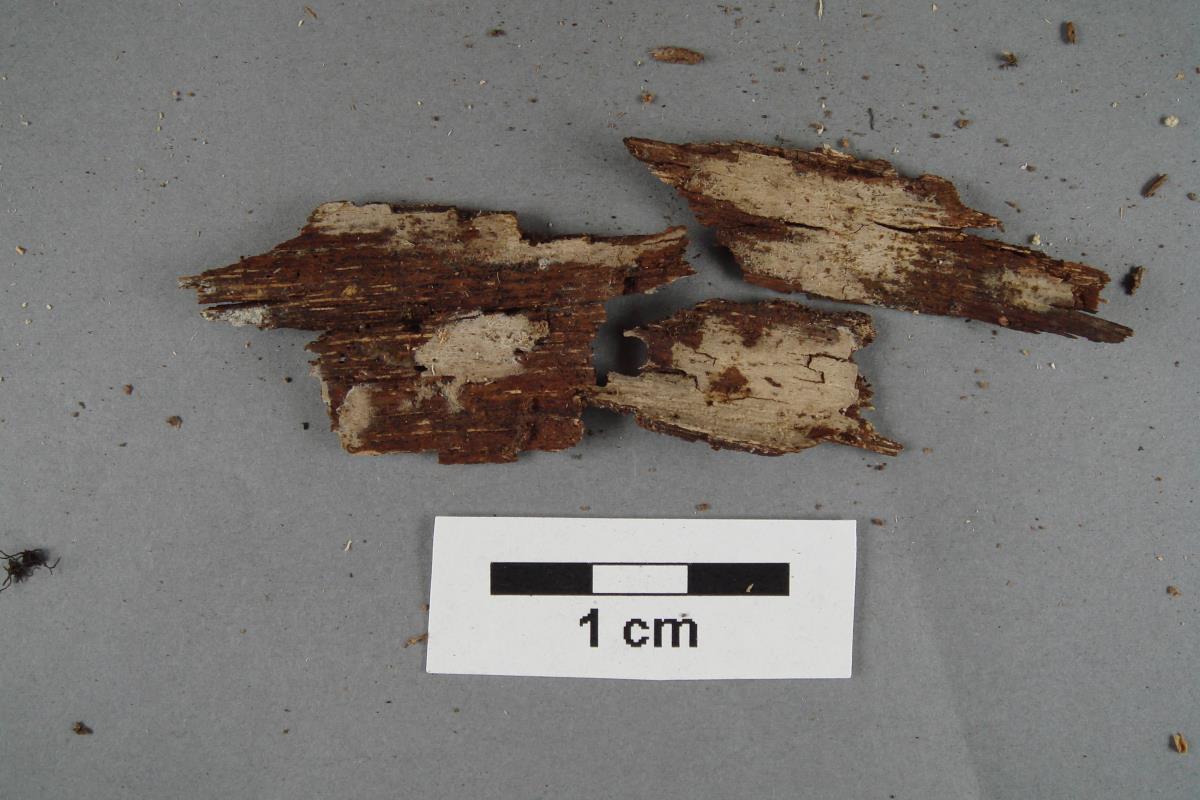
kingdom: Fungi
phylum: Basidiomycota
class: Agaricomycetes
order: Polyporales
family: Hyphodermataceae
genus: Hyphoderma
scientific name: Hyphoderma assimile
